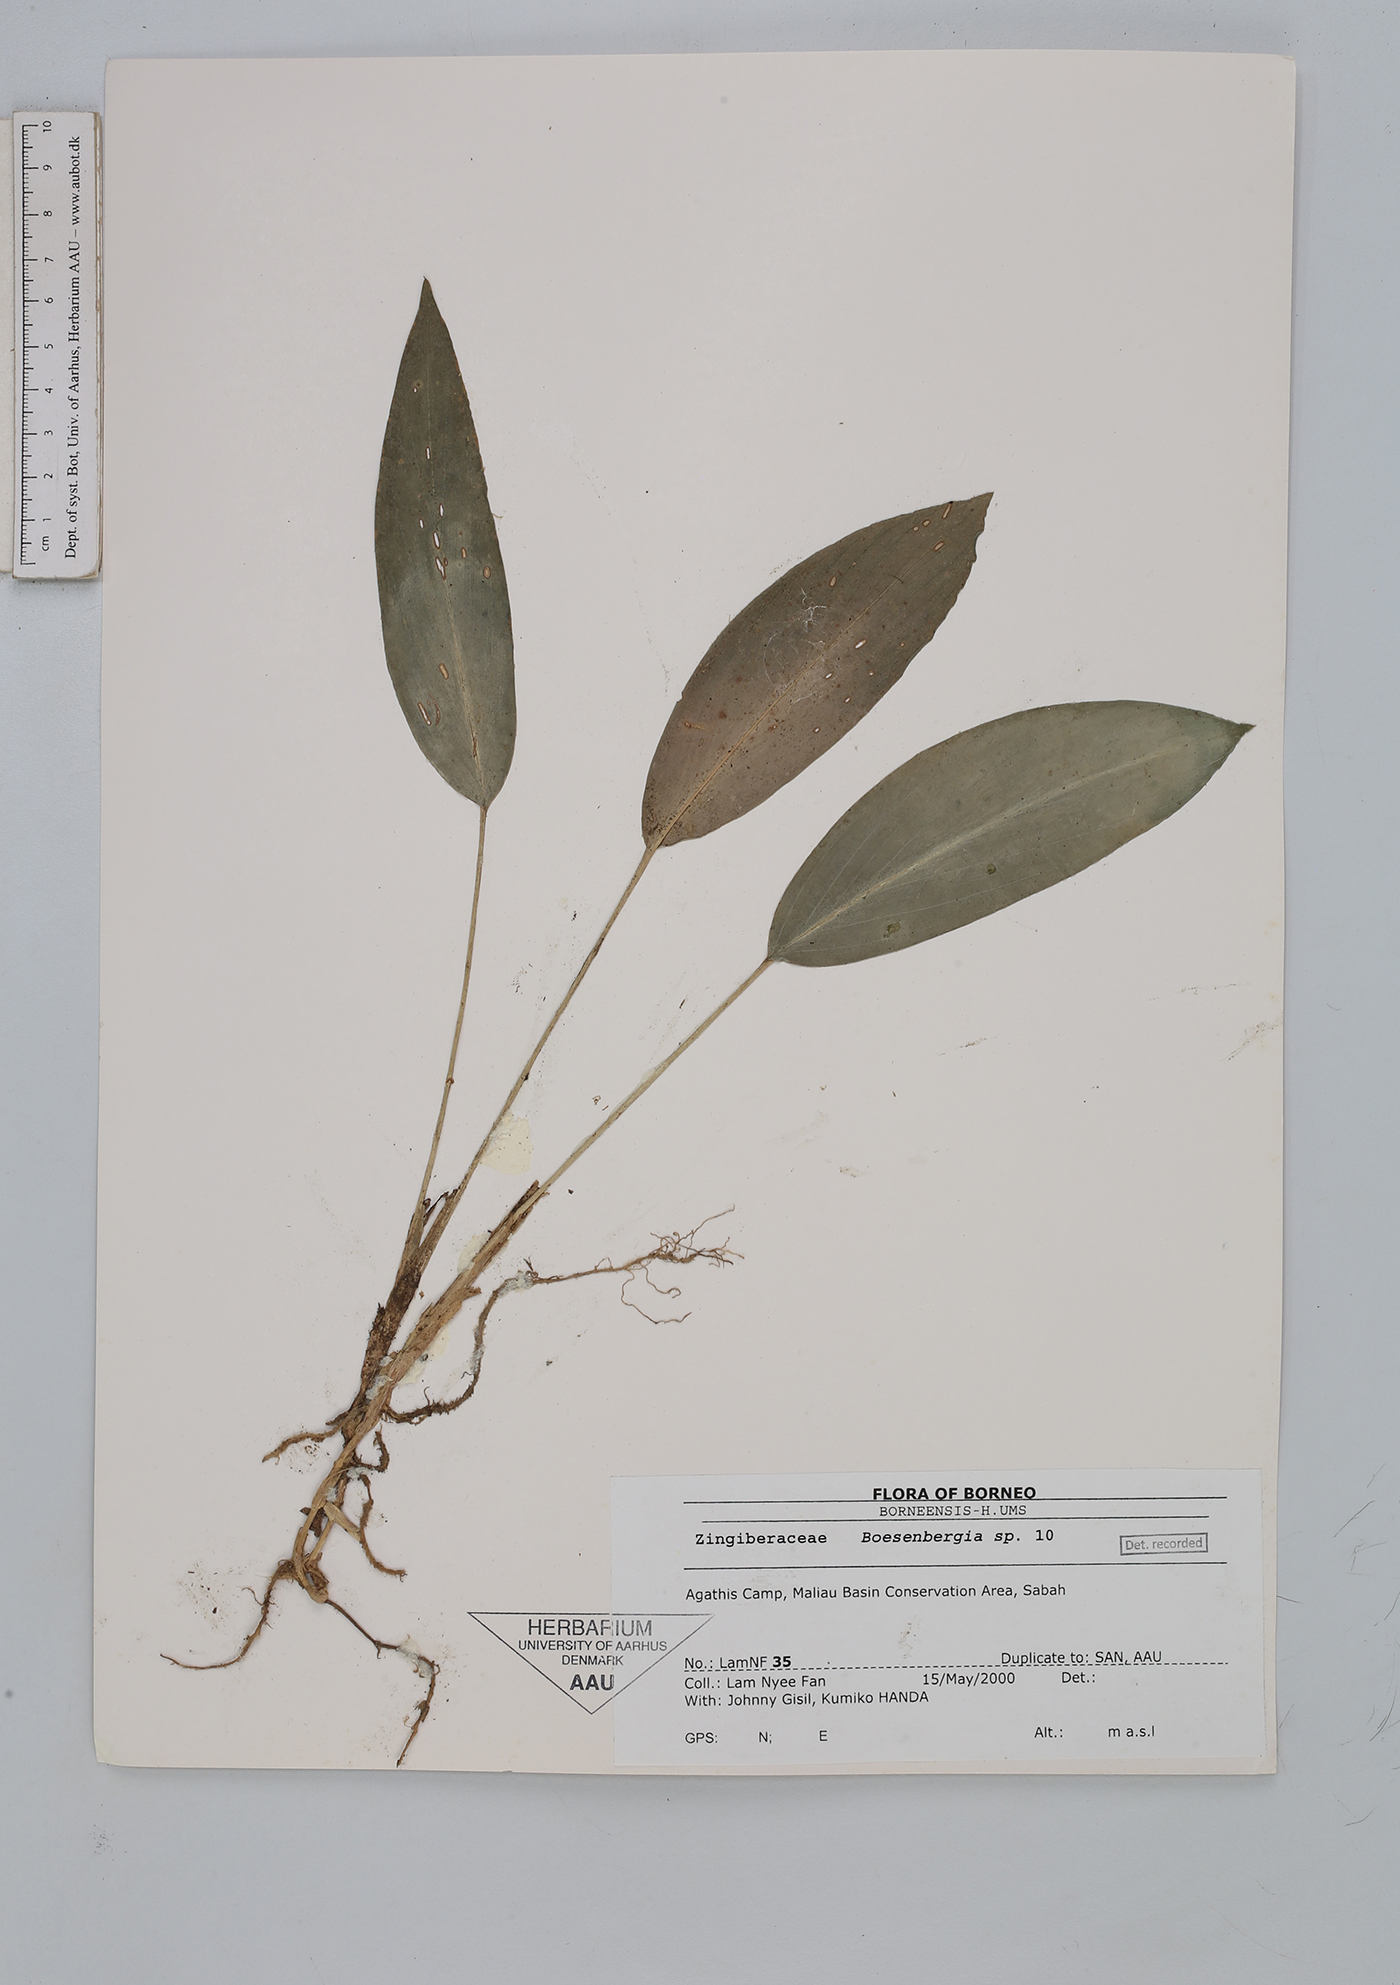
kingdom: Plantae
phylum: Tracheophyta
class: Liliopsida
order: Zingiberales
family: Zingiberaceae
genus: Boesenbergia
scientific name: Boesenbergia
